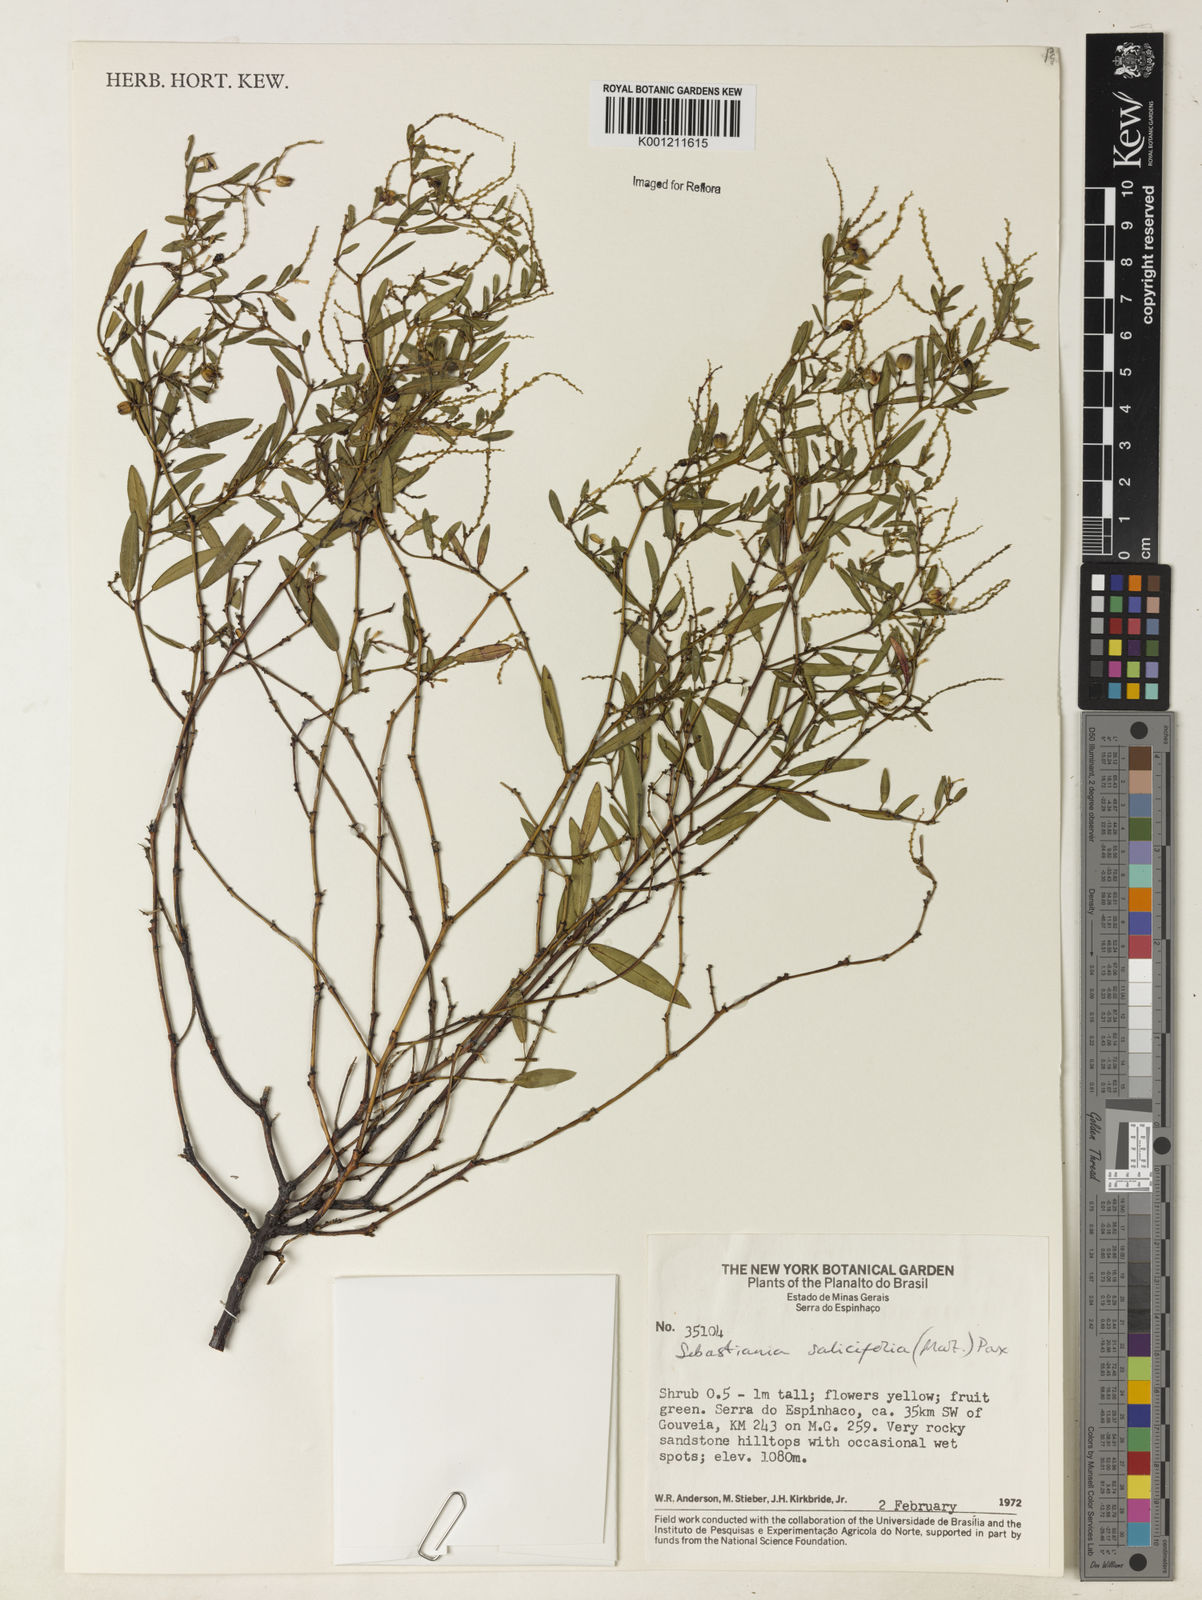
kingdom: Plantae
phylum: Tracheophyta
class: Magnoliopsida
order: Malpighiales
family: Euphorbiaceae
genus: Microstachys
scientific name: Microstachys
